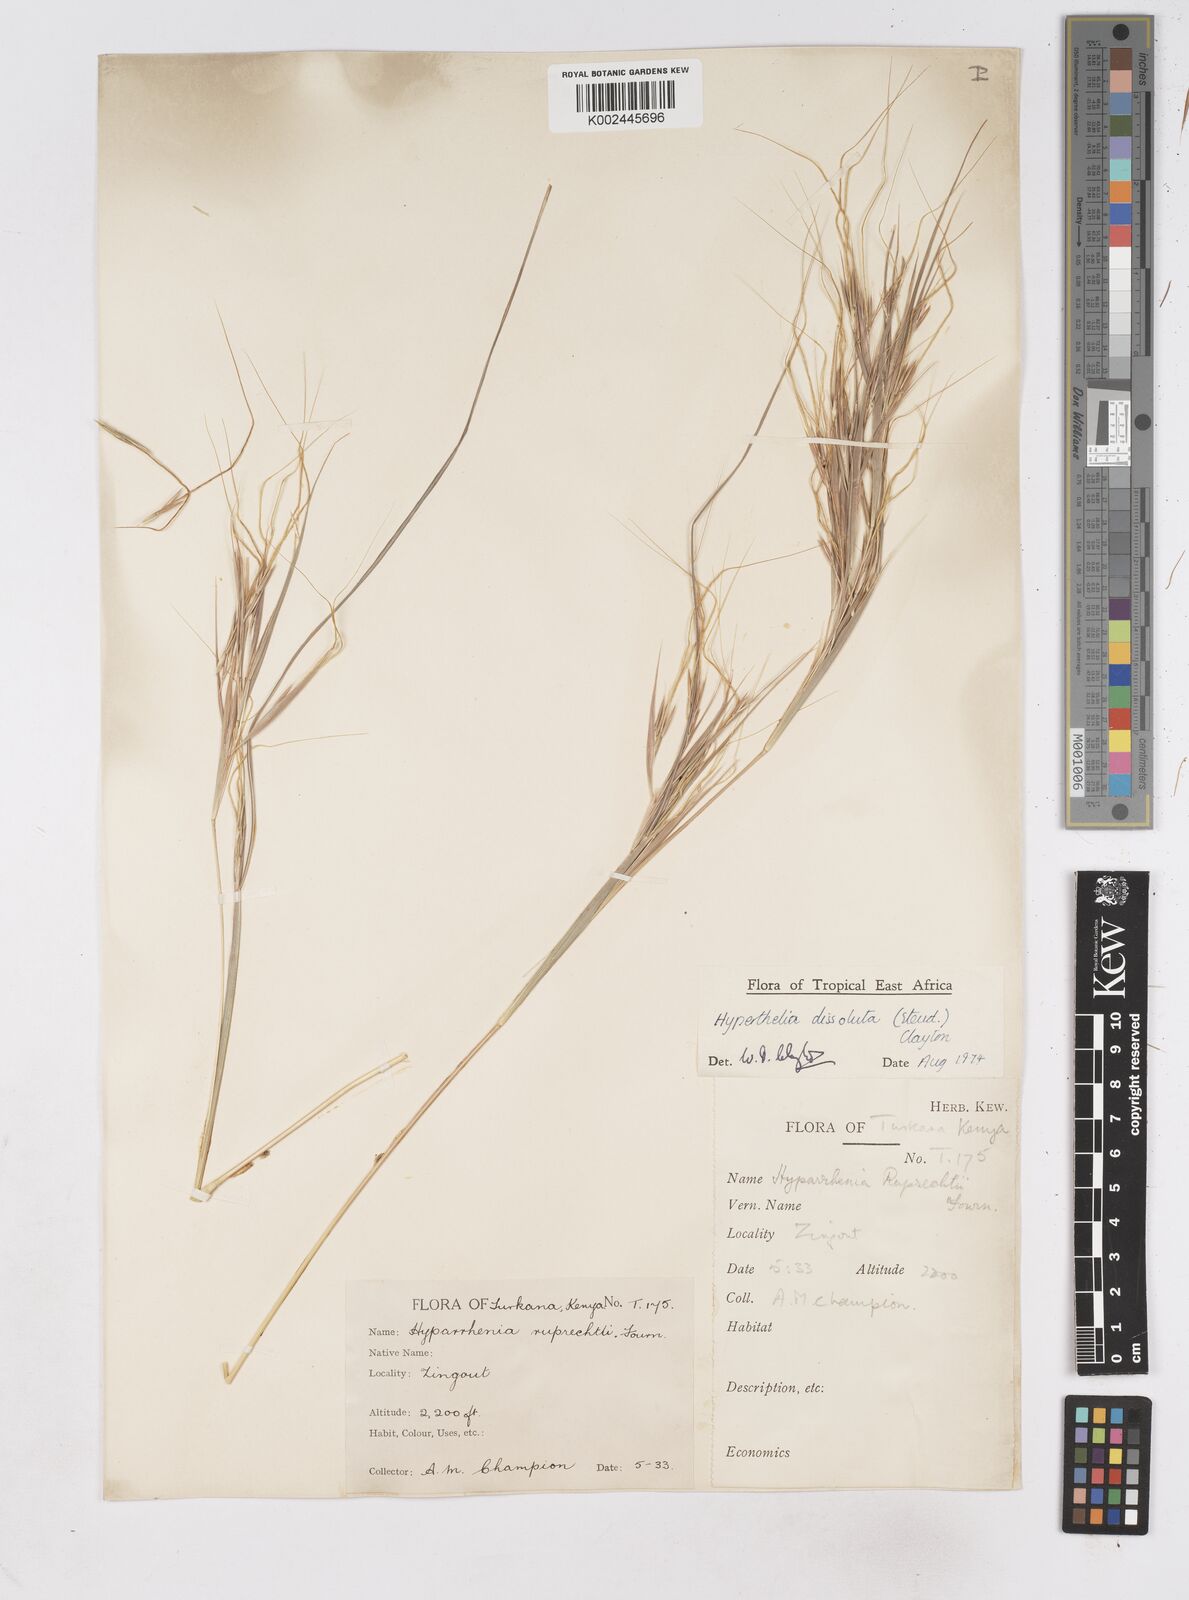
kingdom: Plantae
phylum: Tracheophyta
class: Liliopsida
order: Poales
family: Poaceae
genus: Hyperthelia
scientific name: Hyperthelia dissoluta
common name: Yellow thatching grass
